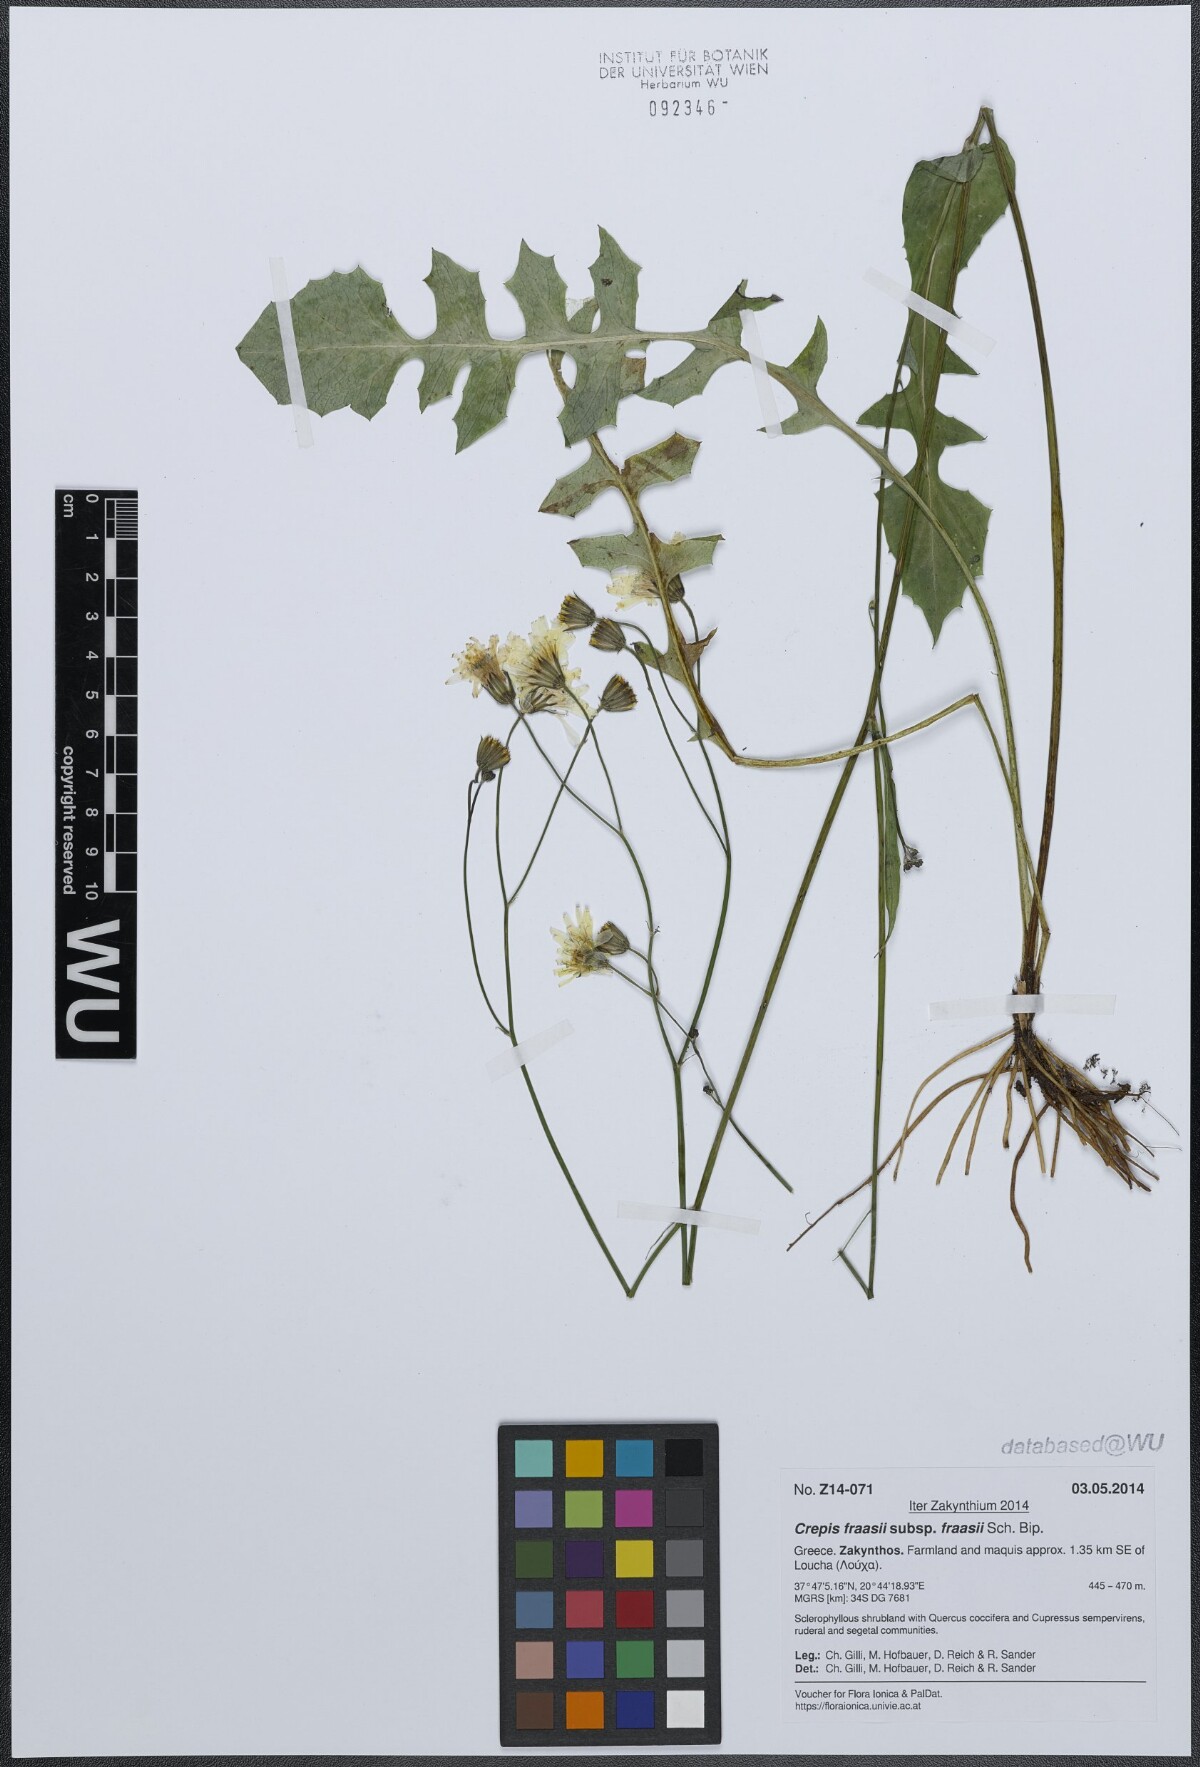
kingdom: Plantae
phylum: Tracheophyta
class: Magnoliopsida
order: Asterales
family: Asteraceae
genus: Crepis
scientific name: Crepis fraasii
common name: Hawk's-beard
